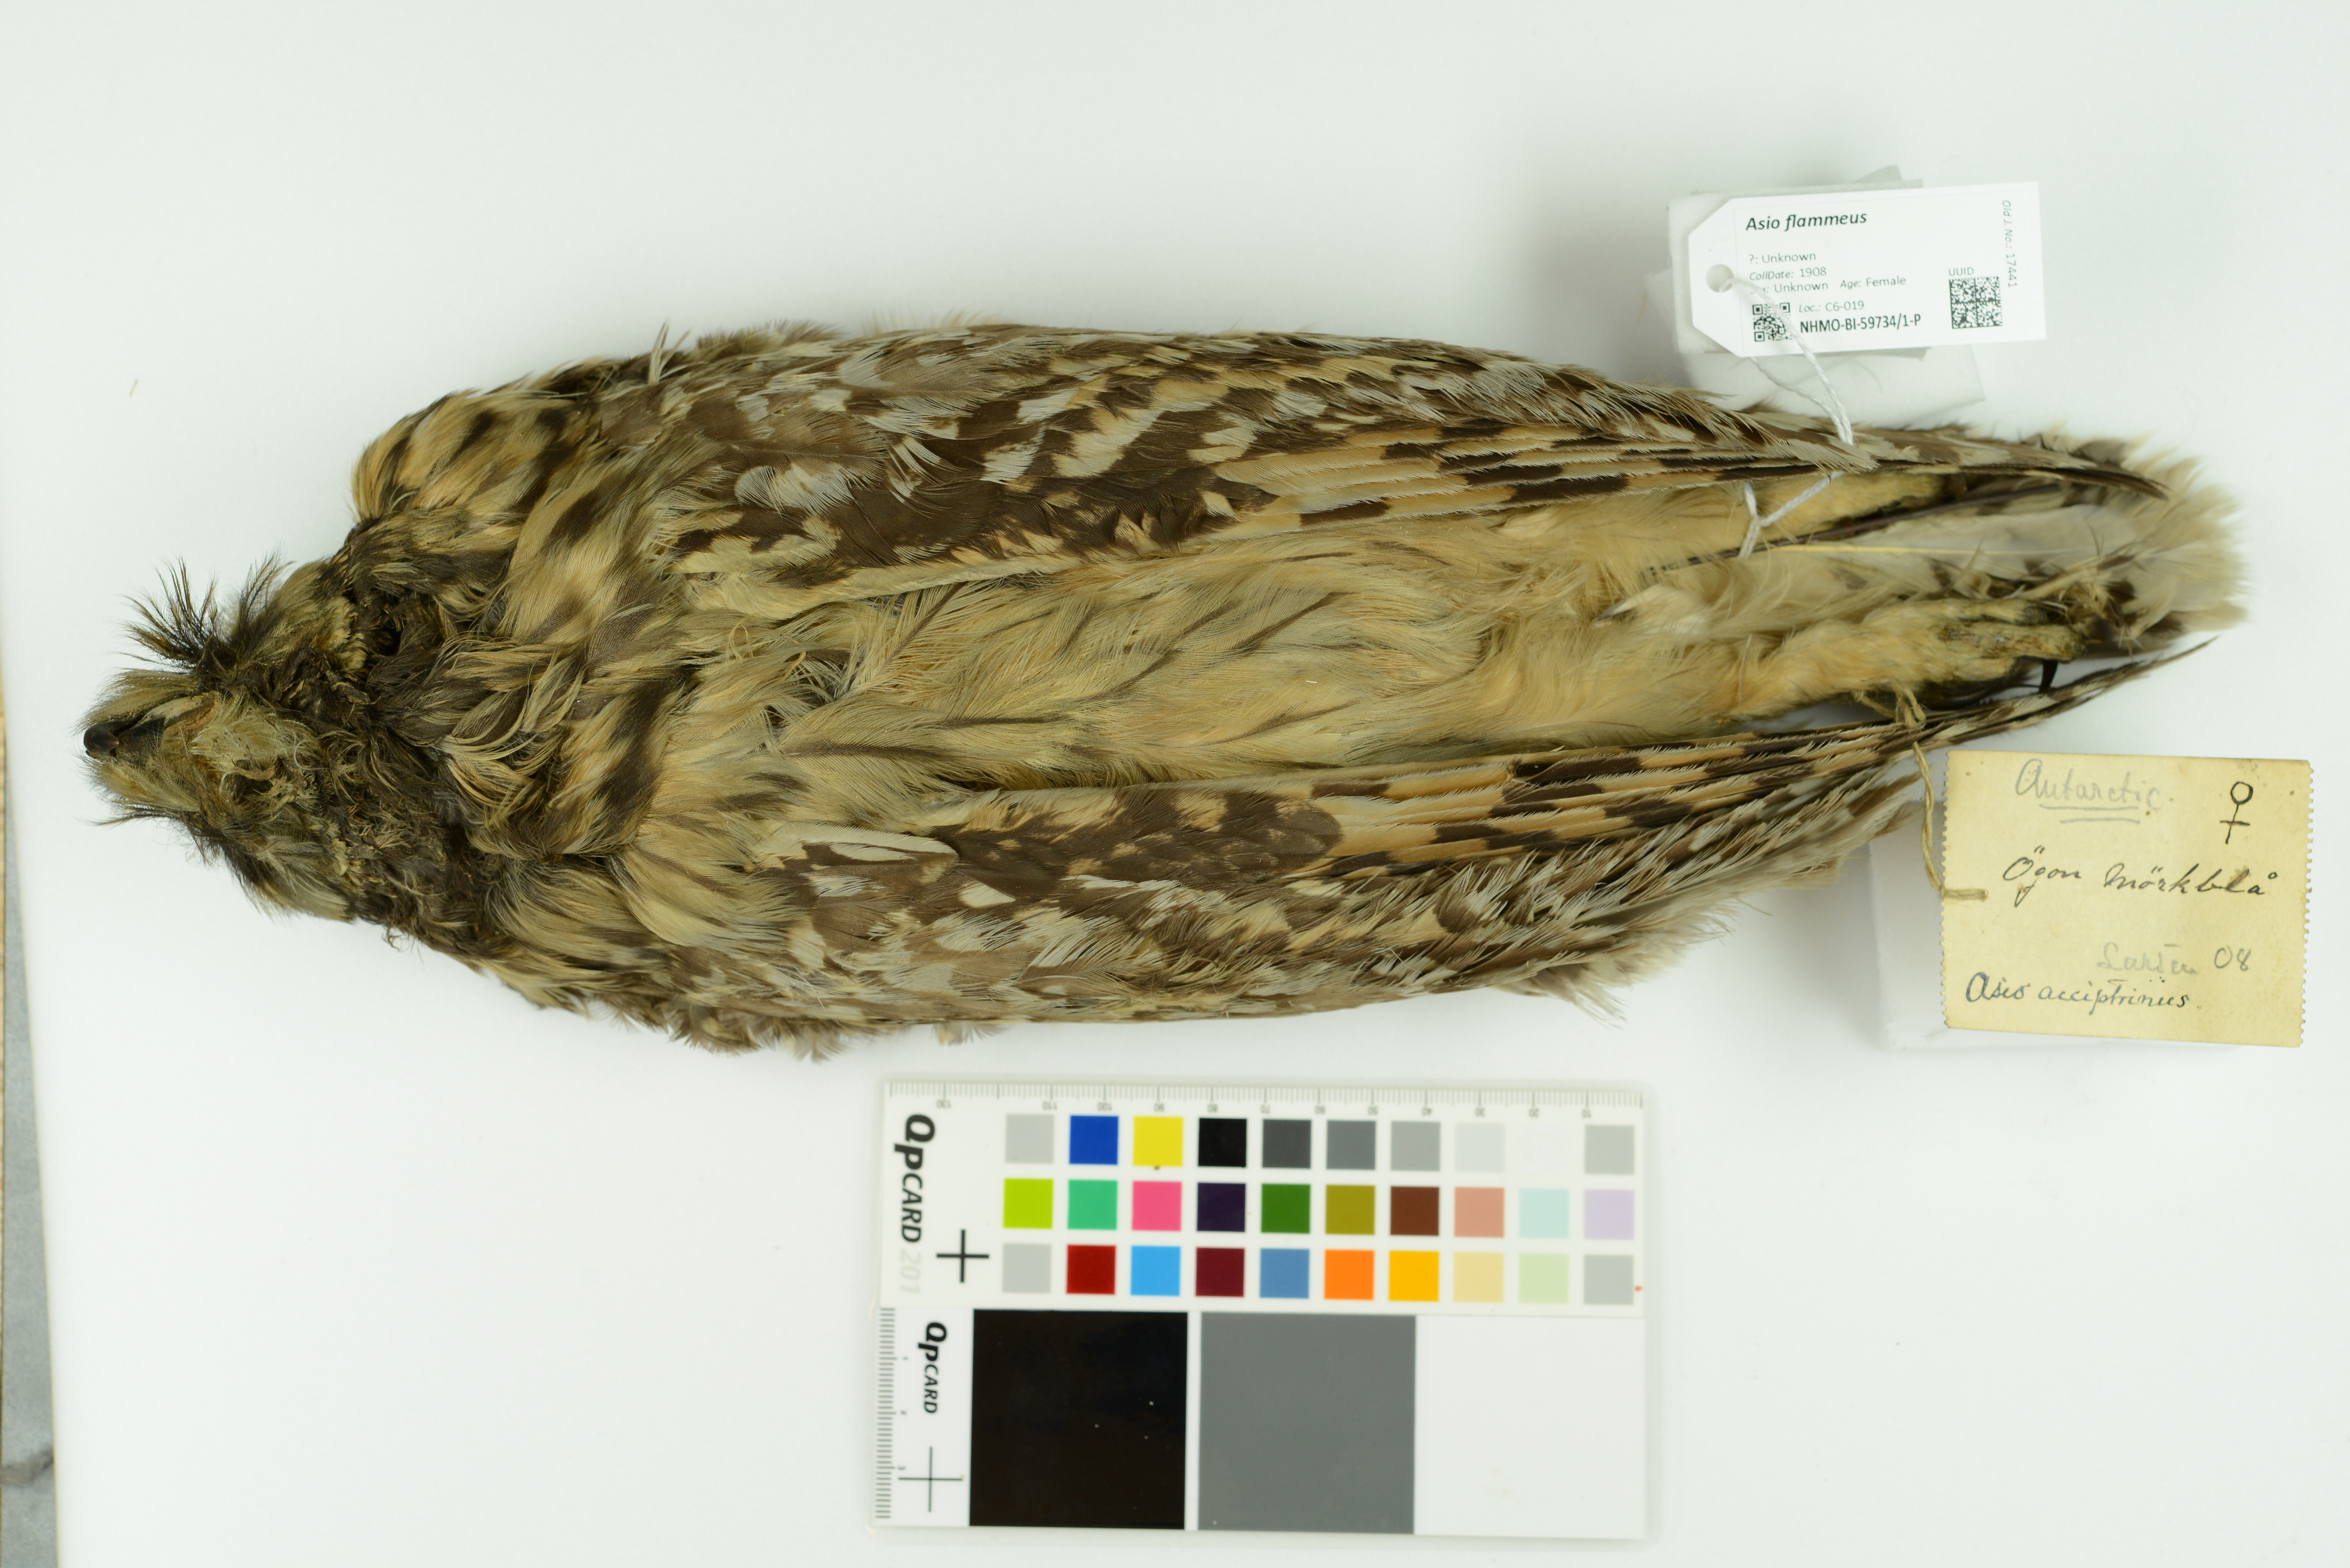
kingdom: Animalia
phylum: Chordata
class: Aves
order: Strigiformes
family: Strigidae
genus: Asio
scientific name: Asio flammeus
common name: Short-eared owl
